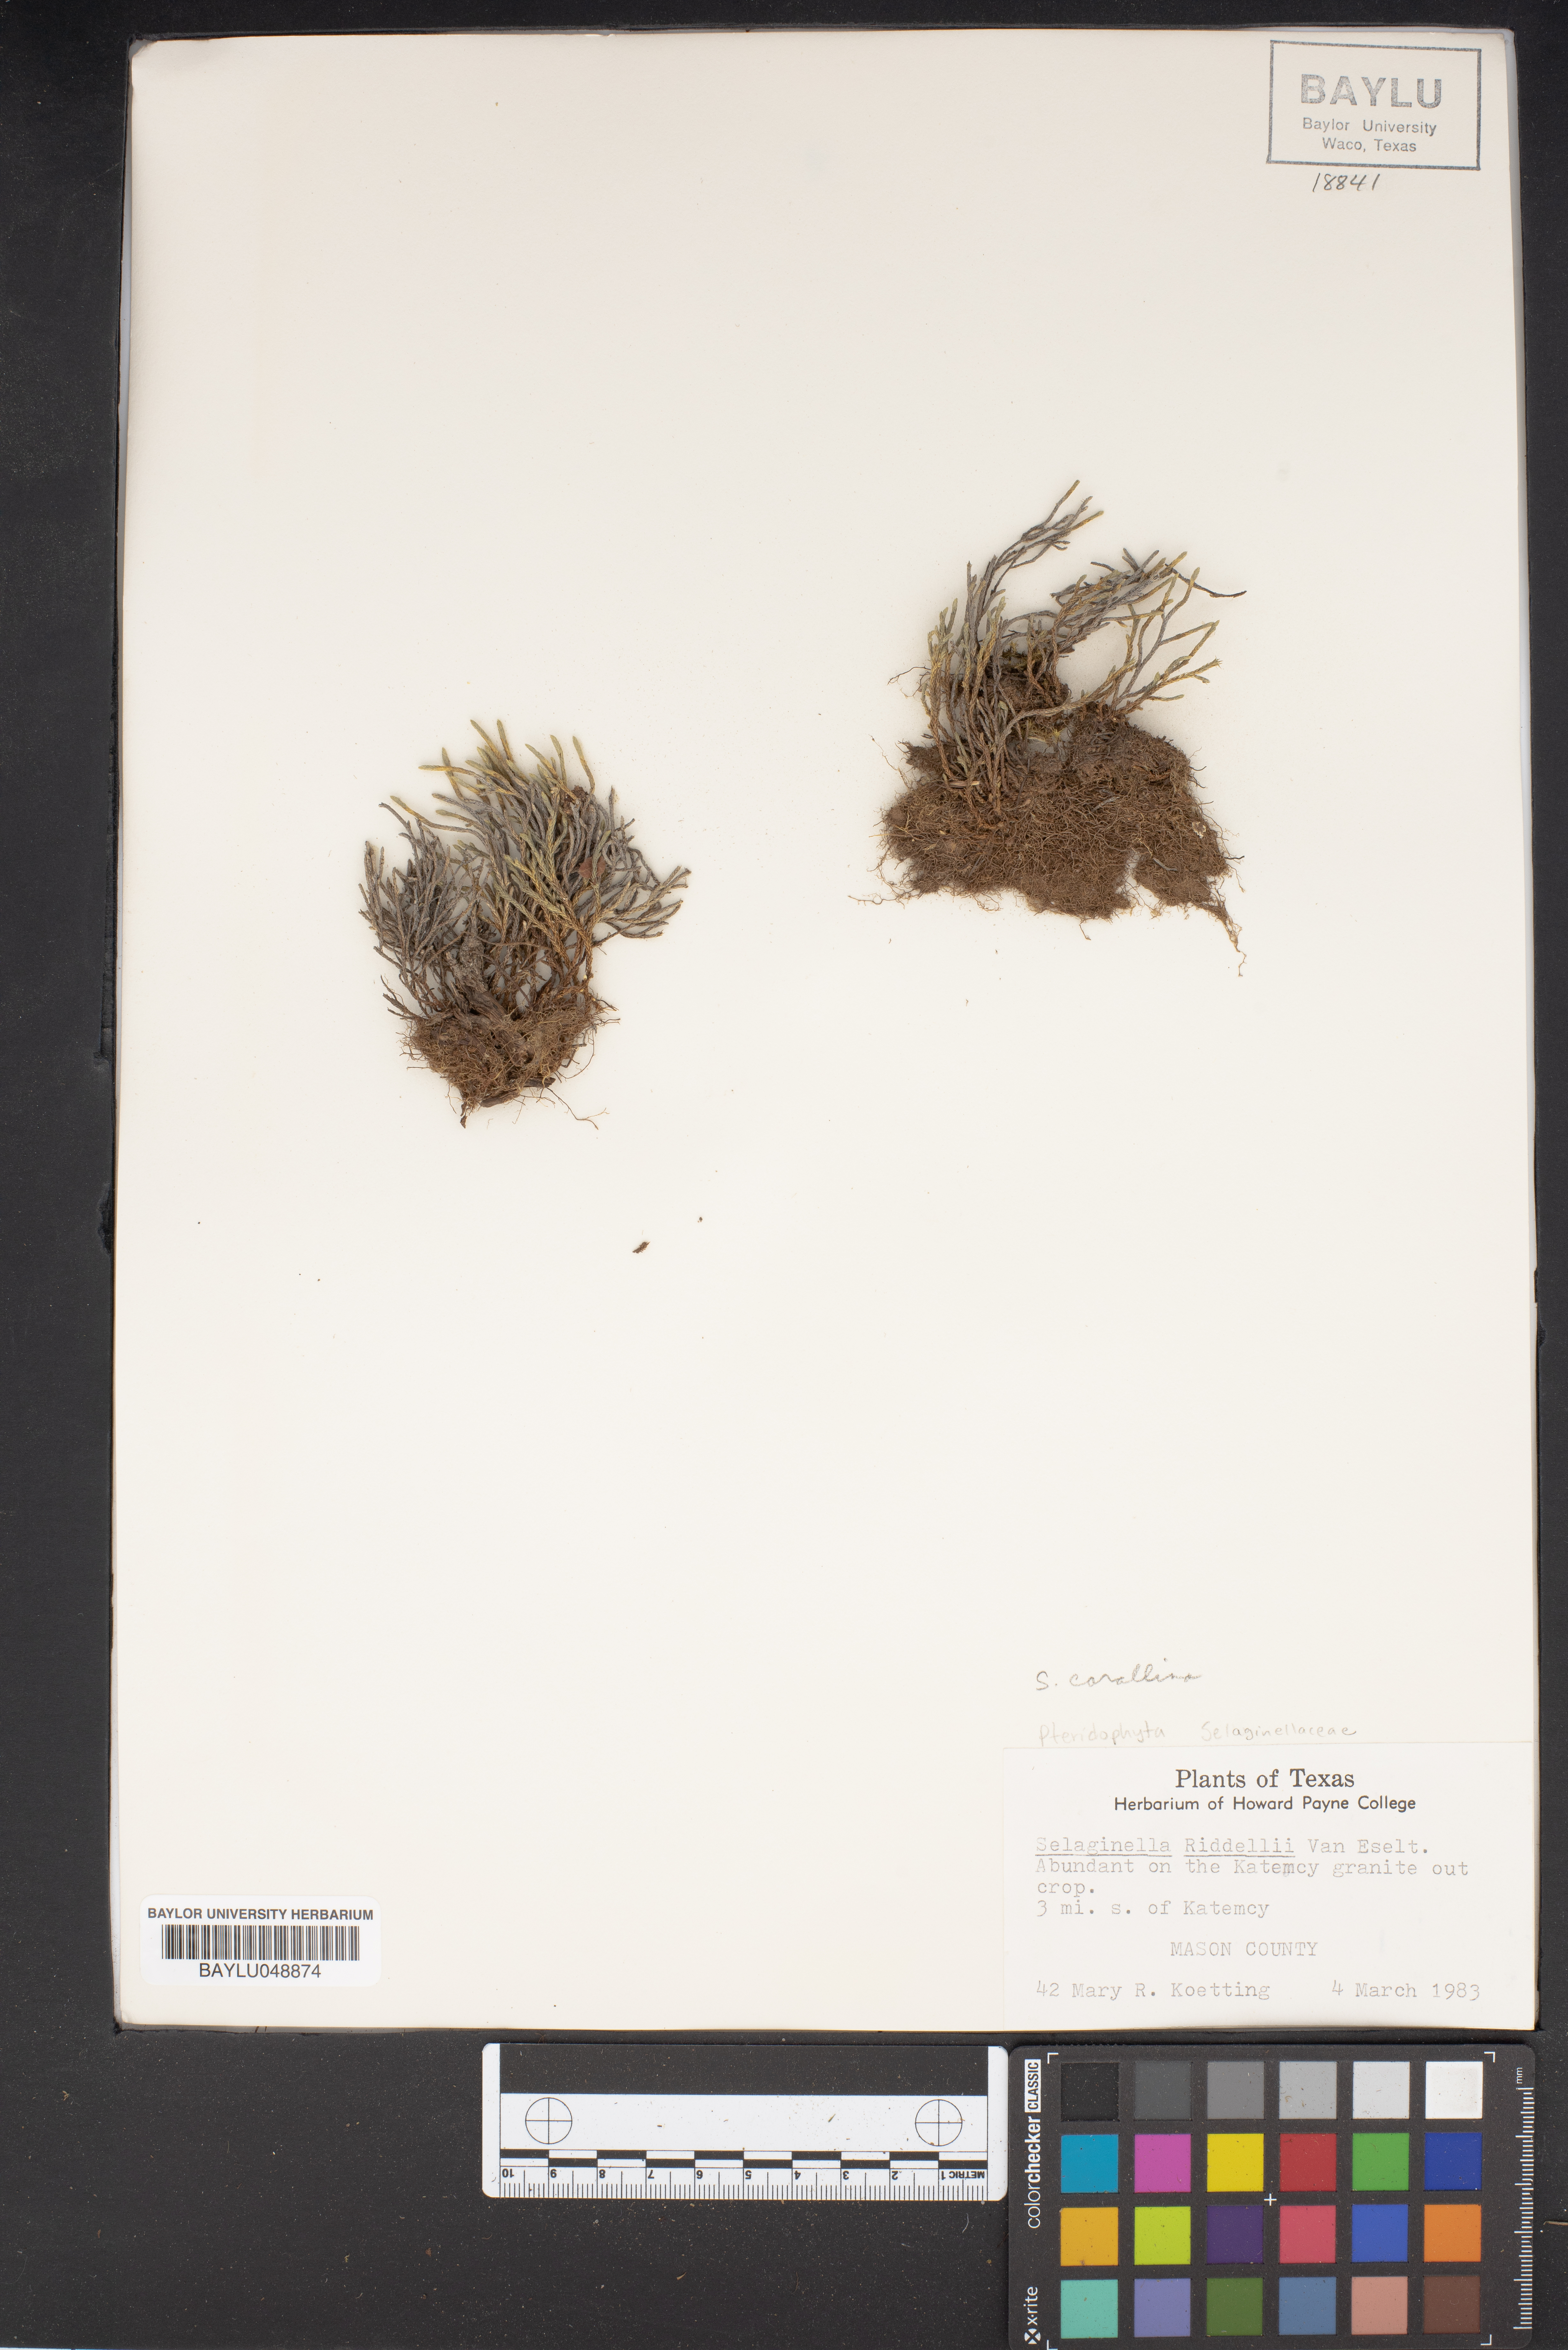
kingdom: Plantae
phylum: Tracheophyta
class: Lycopodiopsida
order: Selaginellales
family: Selaginellaceae
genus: Selaginella
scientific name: Selaginella corallina
